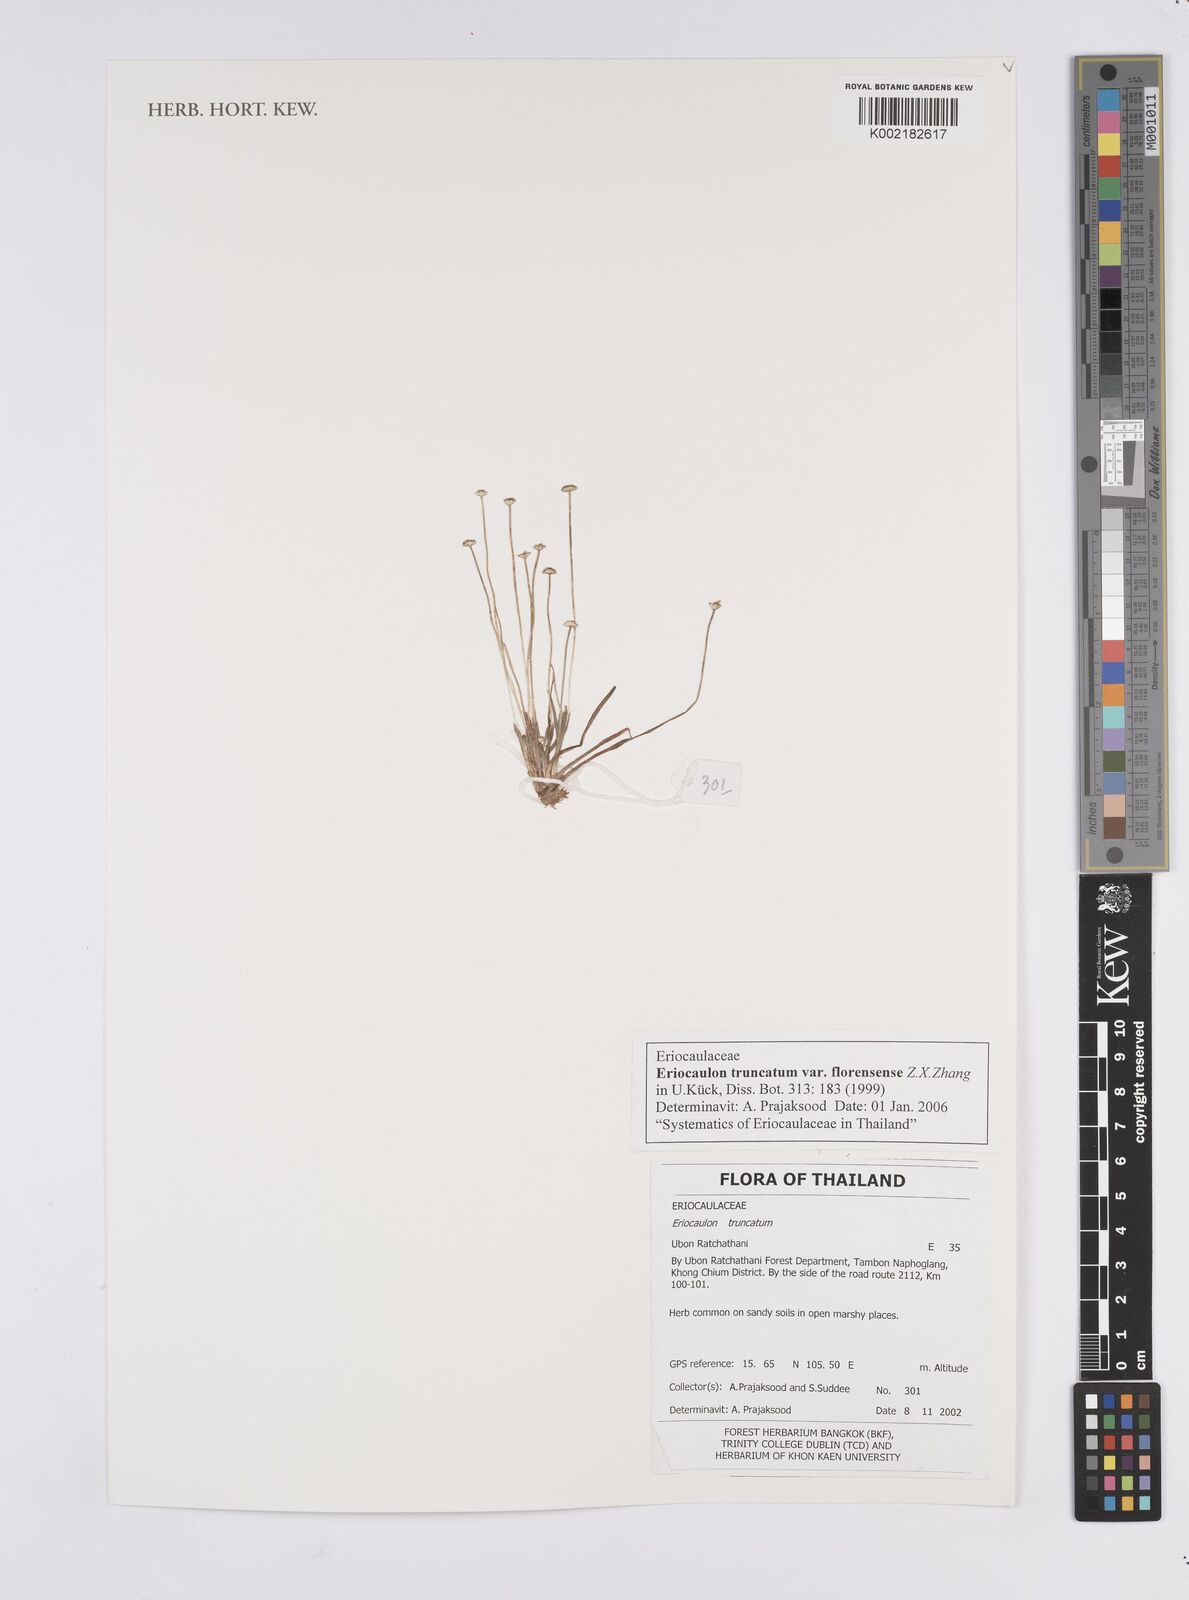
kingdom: Plantae
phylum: Tracheophyta
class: Liliopsida
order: Poales
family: Eriocaulaceae
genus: Eriocaulon
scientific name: Eriocaulon truncatum
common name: Short pipe-wort
